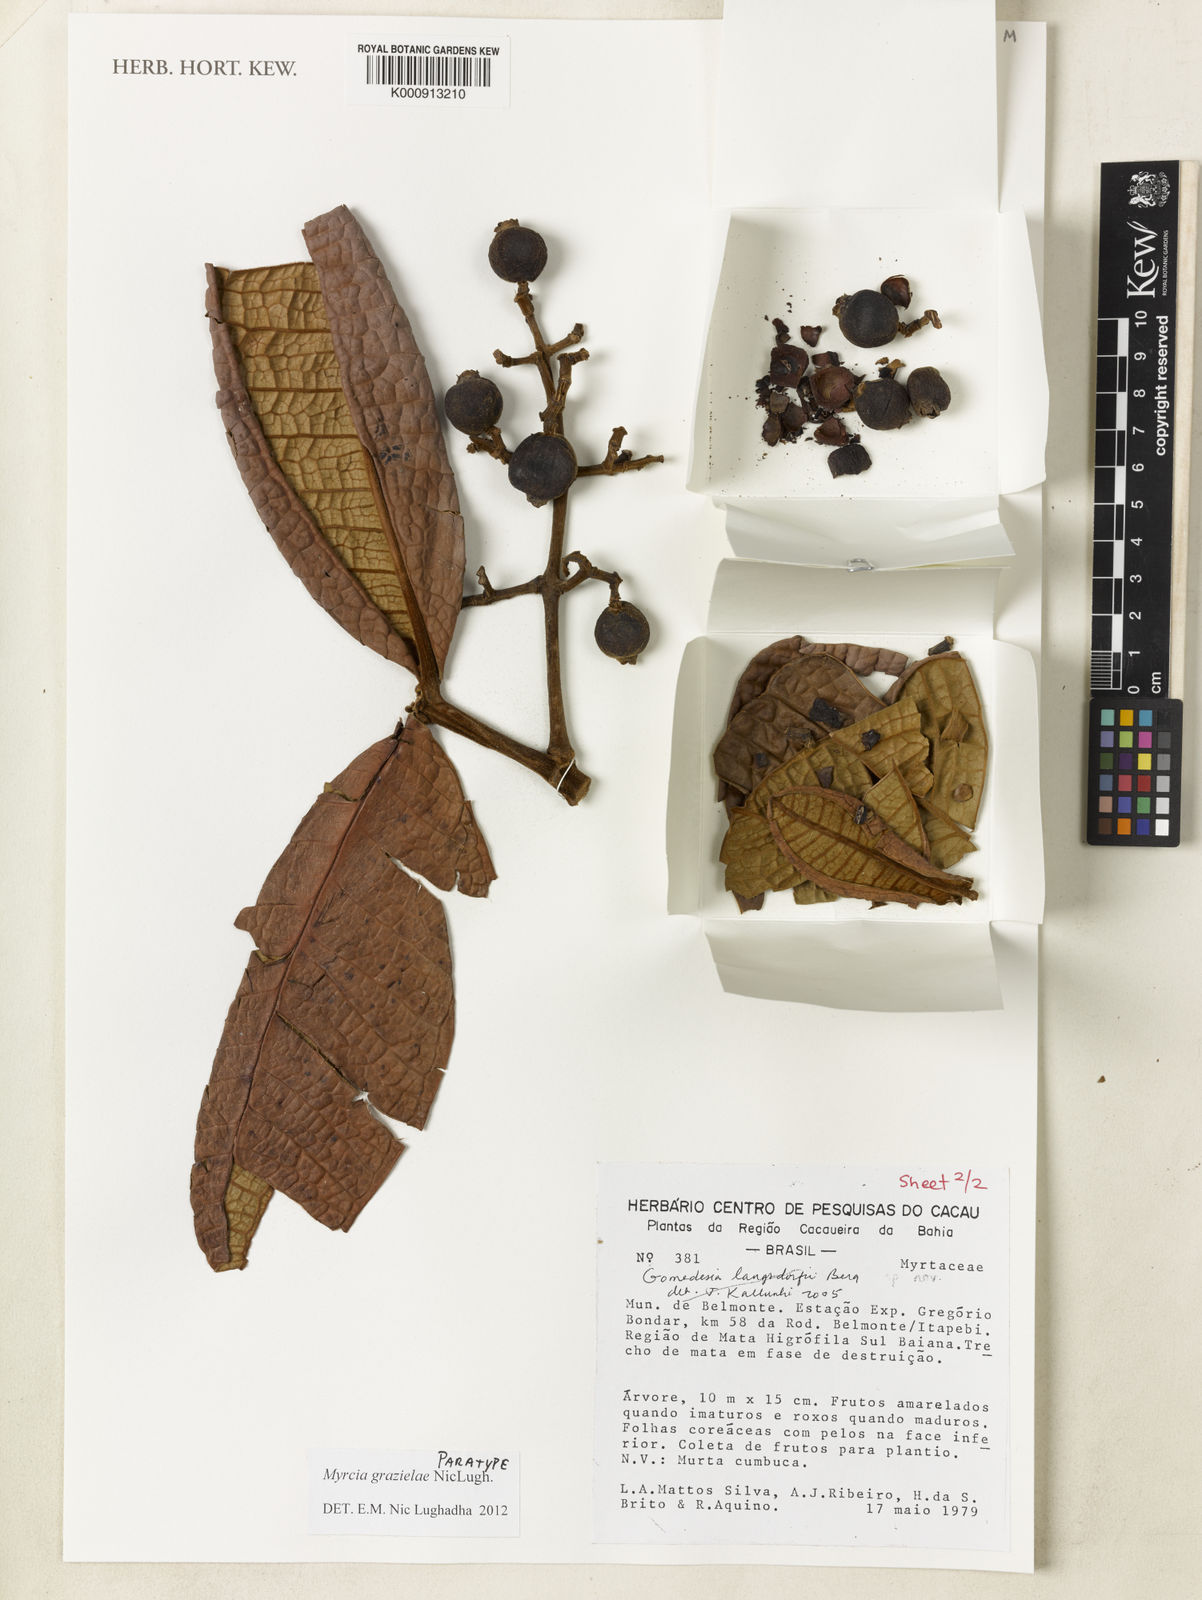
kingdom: Plantae
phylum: Tracheophyta
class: Magnoliopsida
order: Myrtales
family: Myrtaceae
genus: Myrcia
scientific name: Myrcia grazielae
